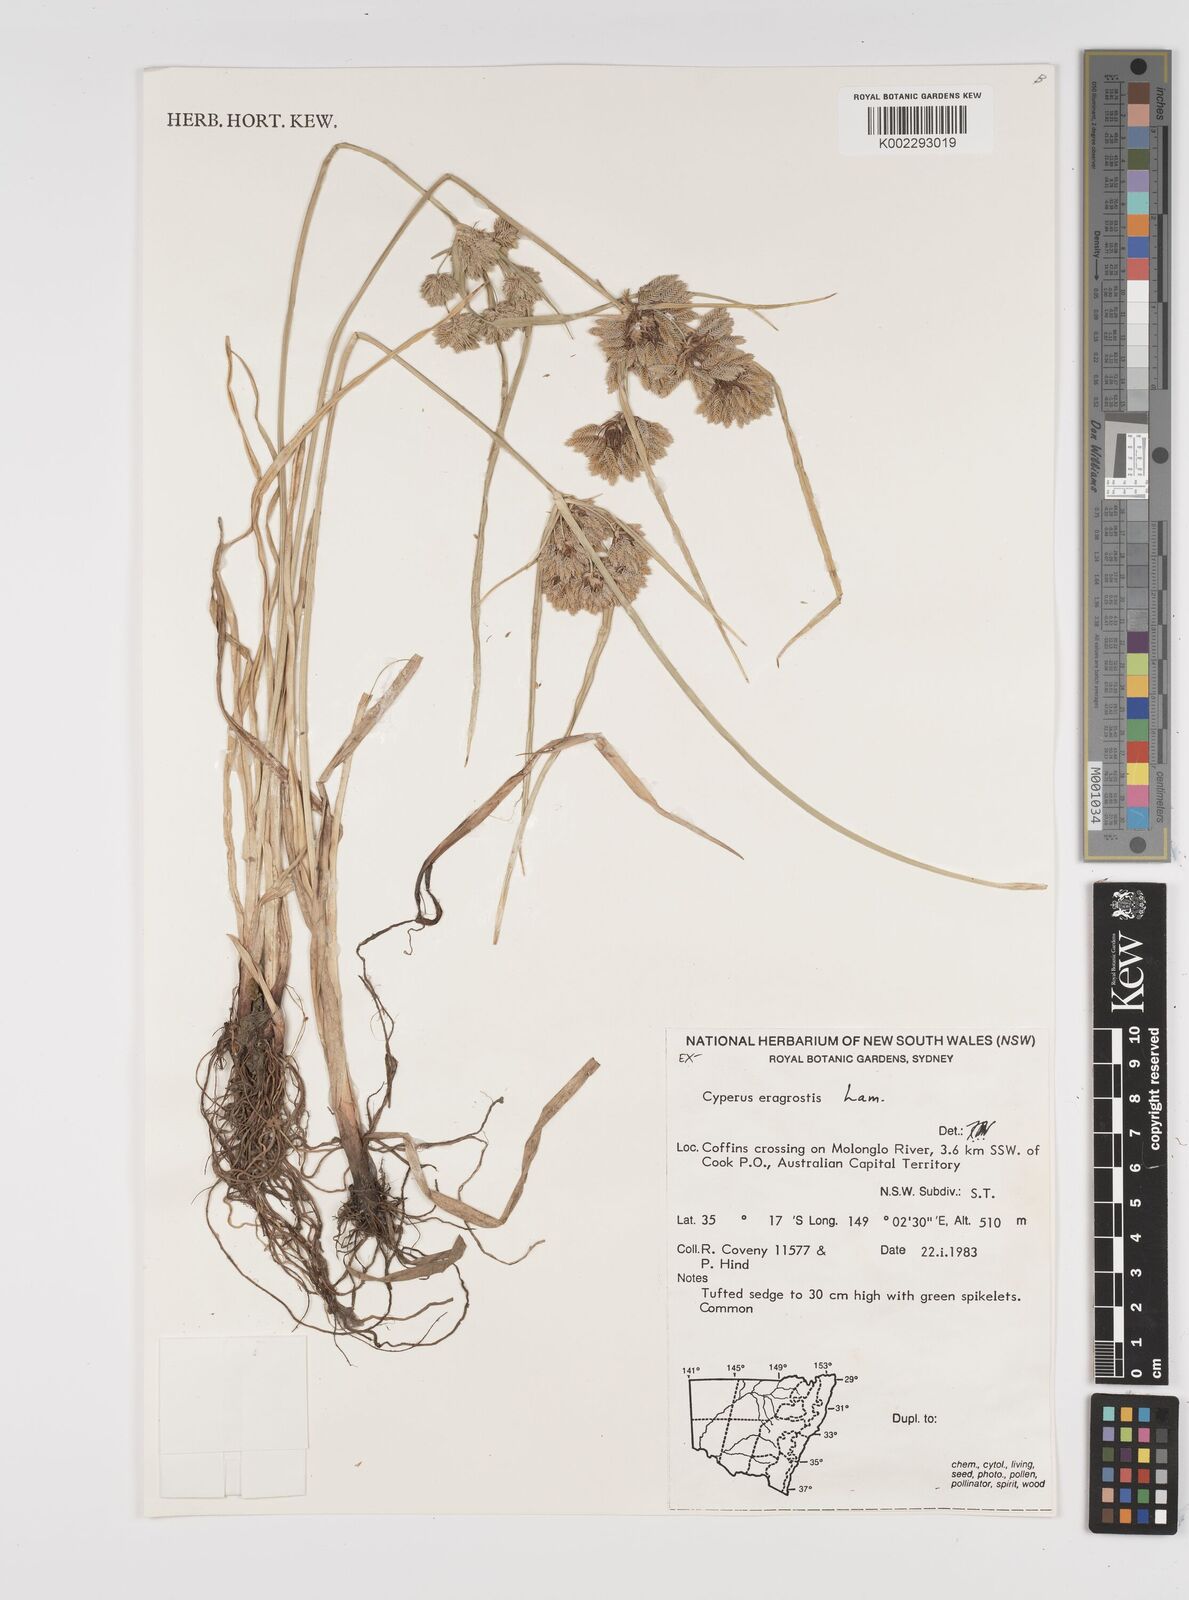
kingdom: Plantae
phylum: Tracheophyta
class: Liliopsida
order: Poales
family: Cyperaceae
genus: Cyperus
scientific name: Cyperus eragrostis
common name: Tall flatsedge
